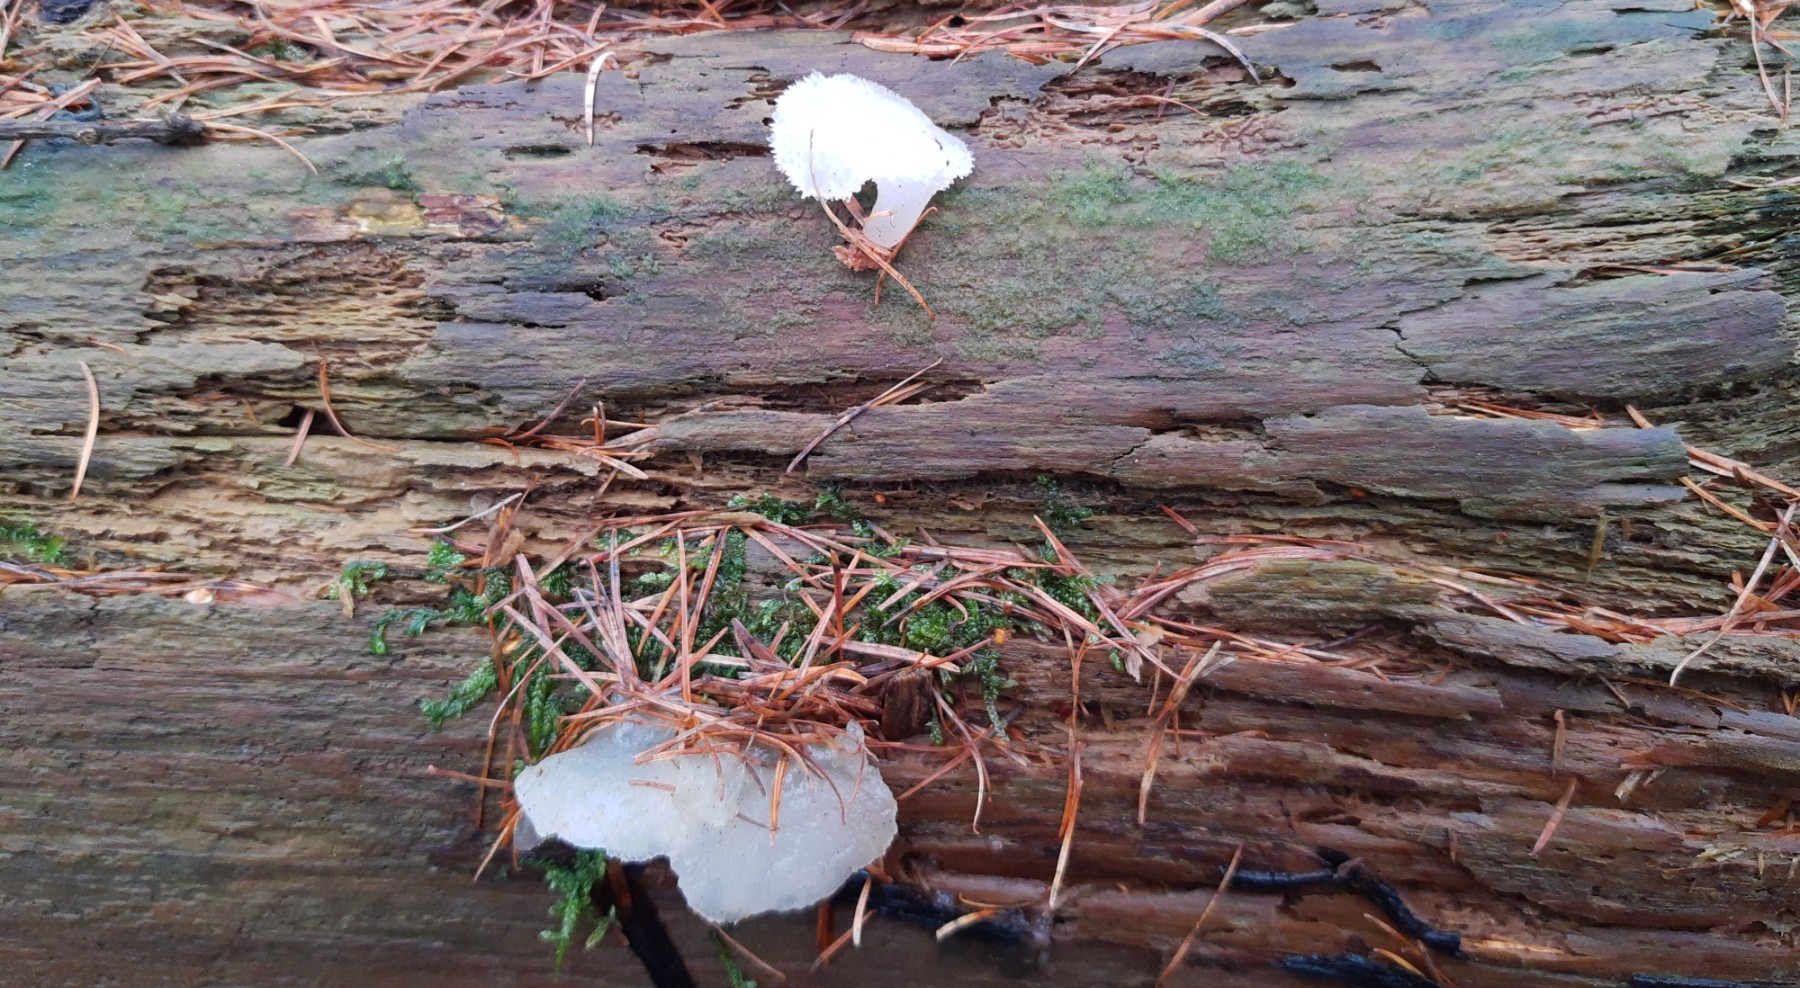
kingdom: Fungi
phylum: Basidiomycota
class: Agaricomycetes
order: Auriculariales
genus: Pseudohydnum
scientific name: Pseudohydnum gelatinosum
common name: bævretand
